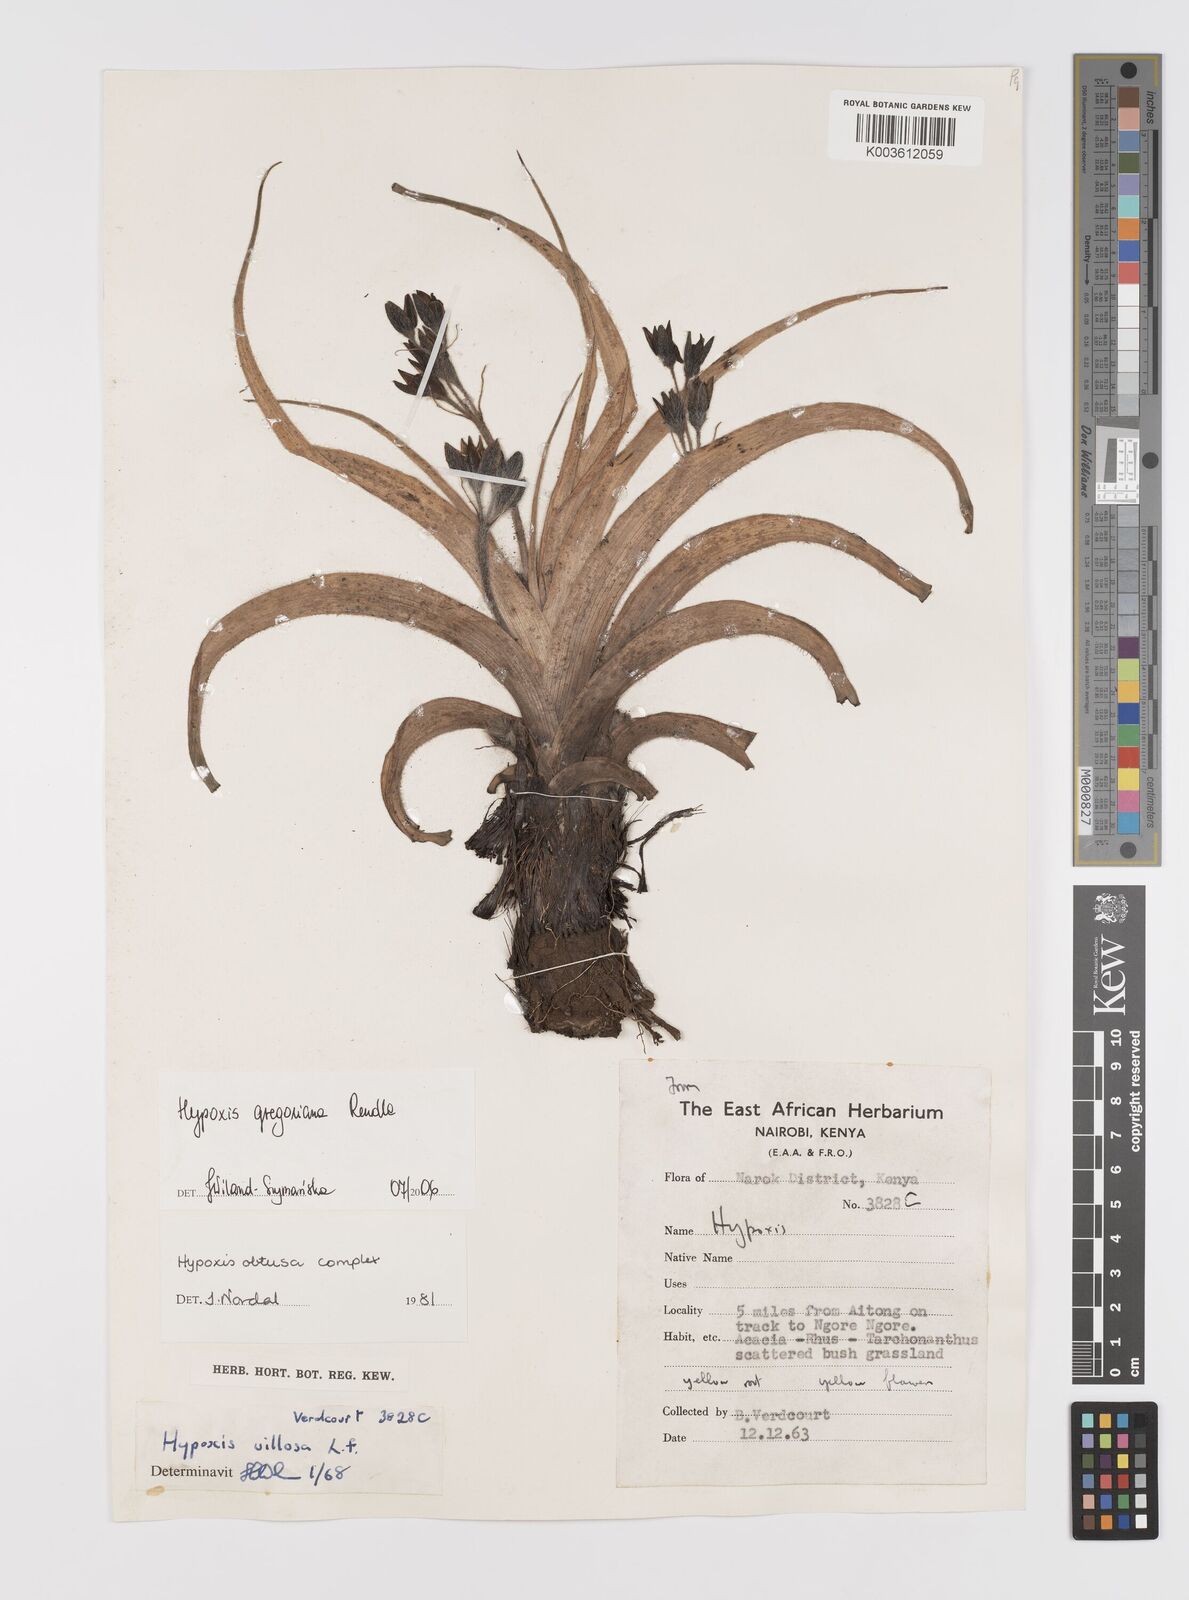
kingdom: Plantae
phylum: Tracheophyta
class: Liliopsida
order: Asparagales
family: Hypoxidaceae
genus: Hypoxis
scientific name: Hypoxis gregoriana
